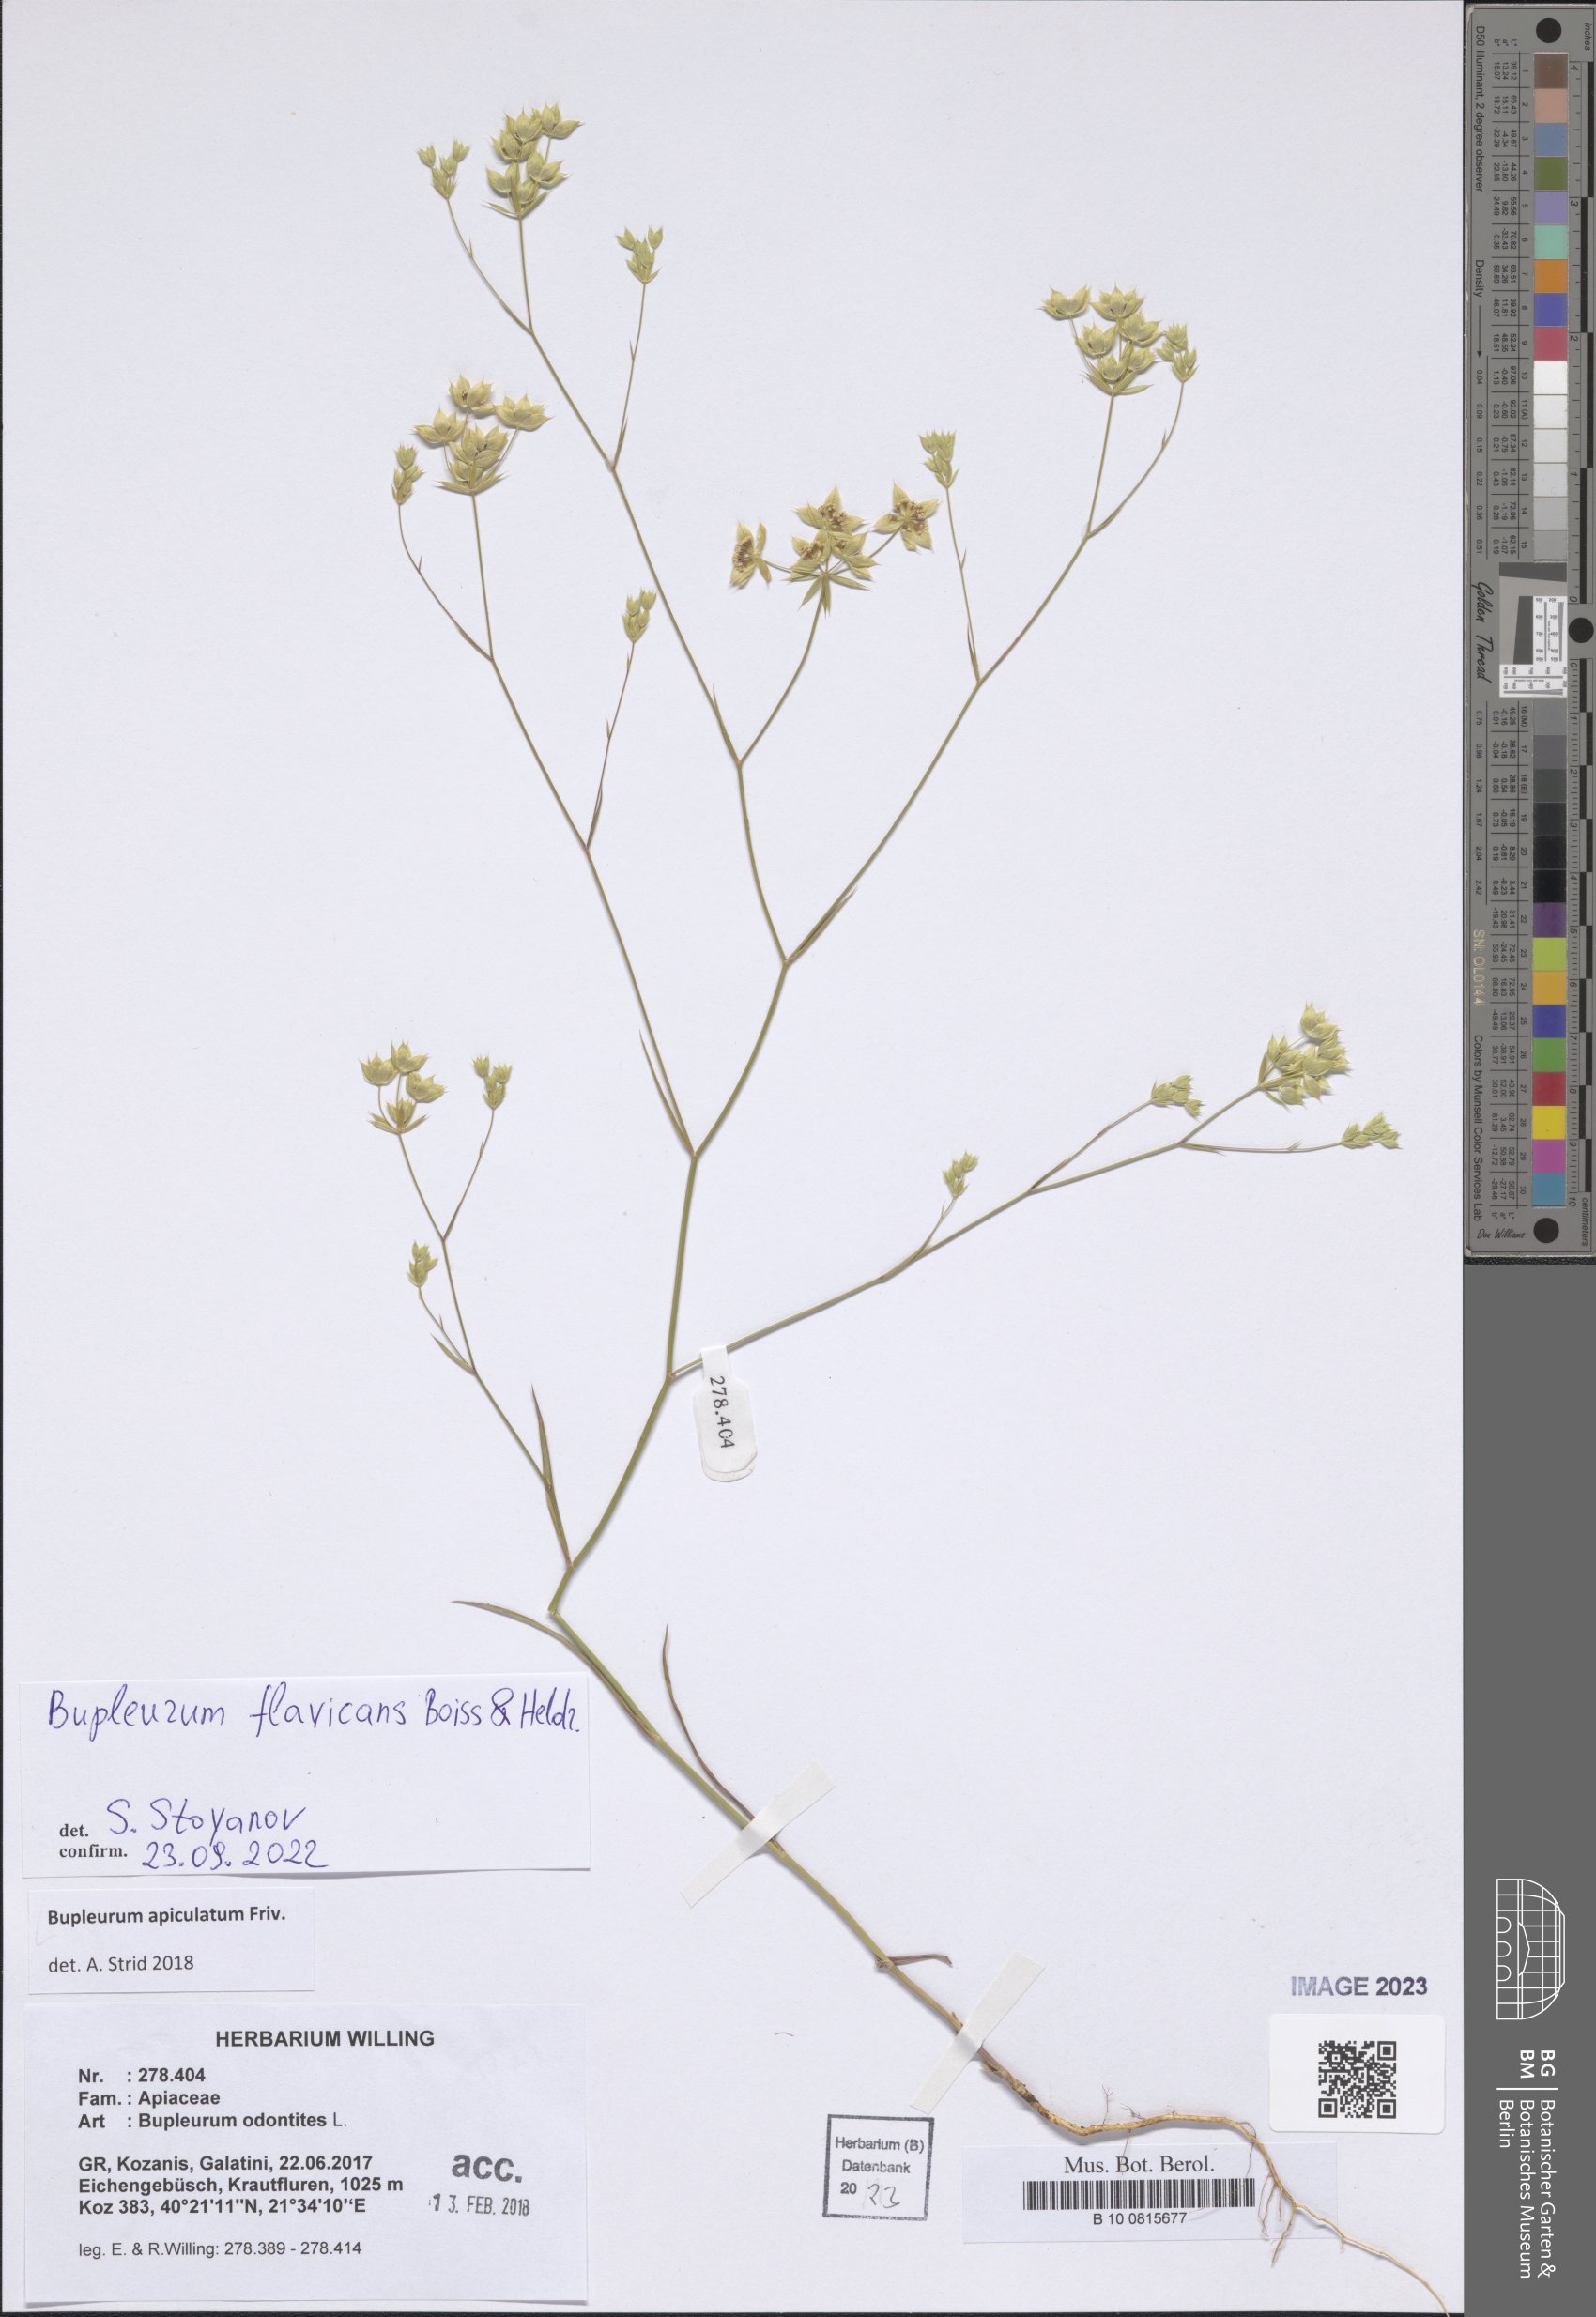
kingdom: Plantae
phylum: Tracheophyta
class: Magnoliopsida
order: Apiales
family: Apiaceae
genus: Bupleurum
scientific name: Bupleurum flavicans
